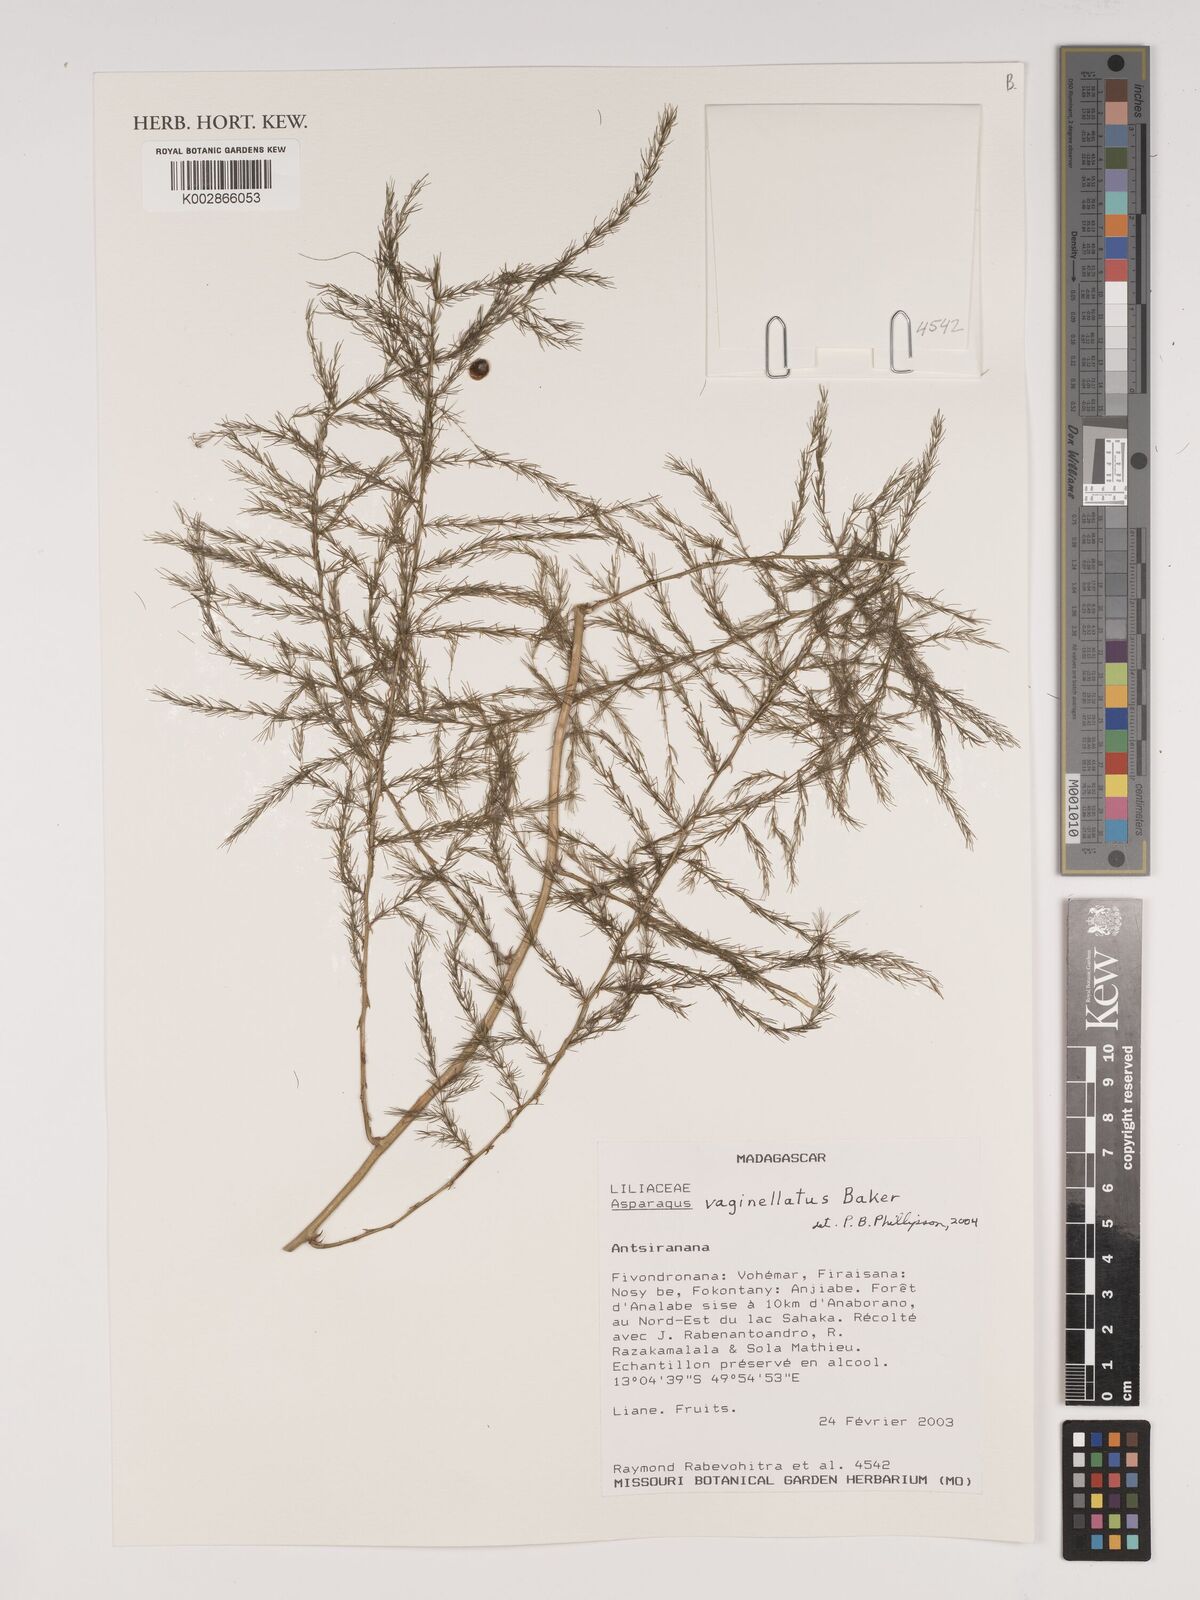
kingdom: Plantae
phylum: Tracheophyta
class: Liliopsida
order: Asparagales
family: Asparagaceae
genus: Asparagus
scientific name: Asparagus vaginellatus
